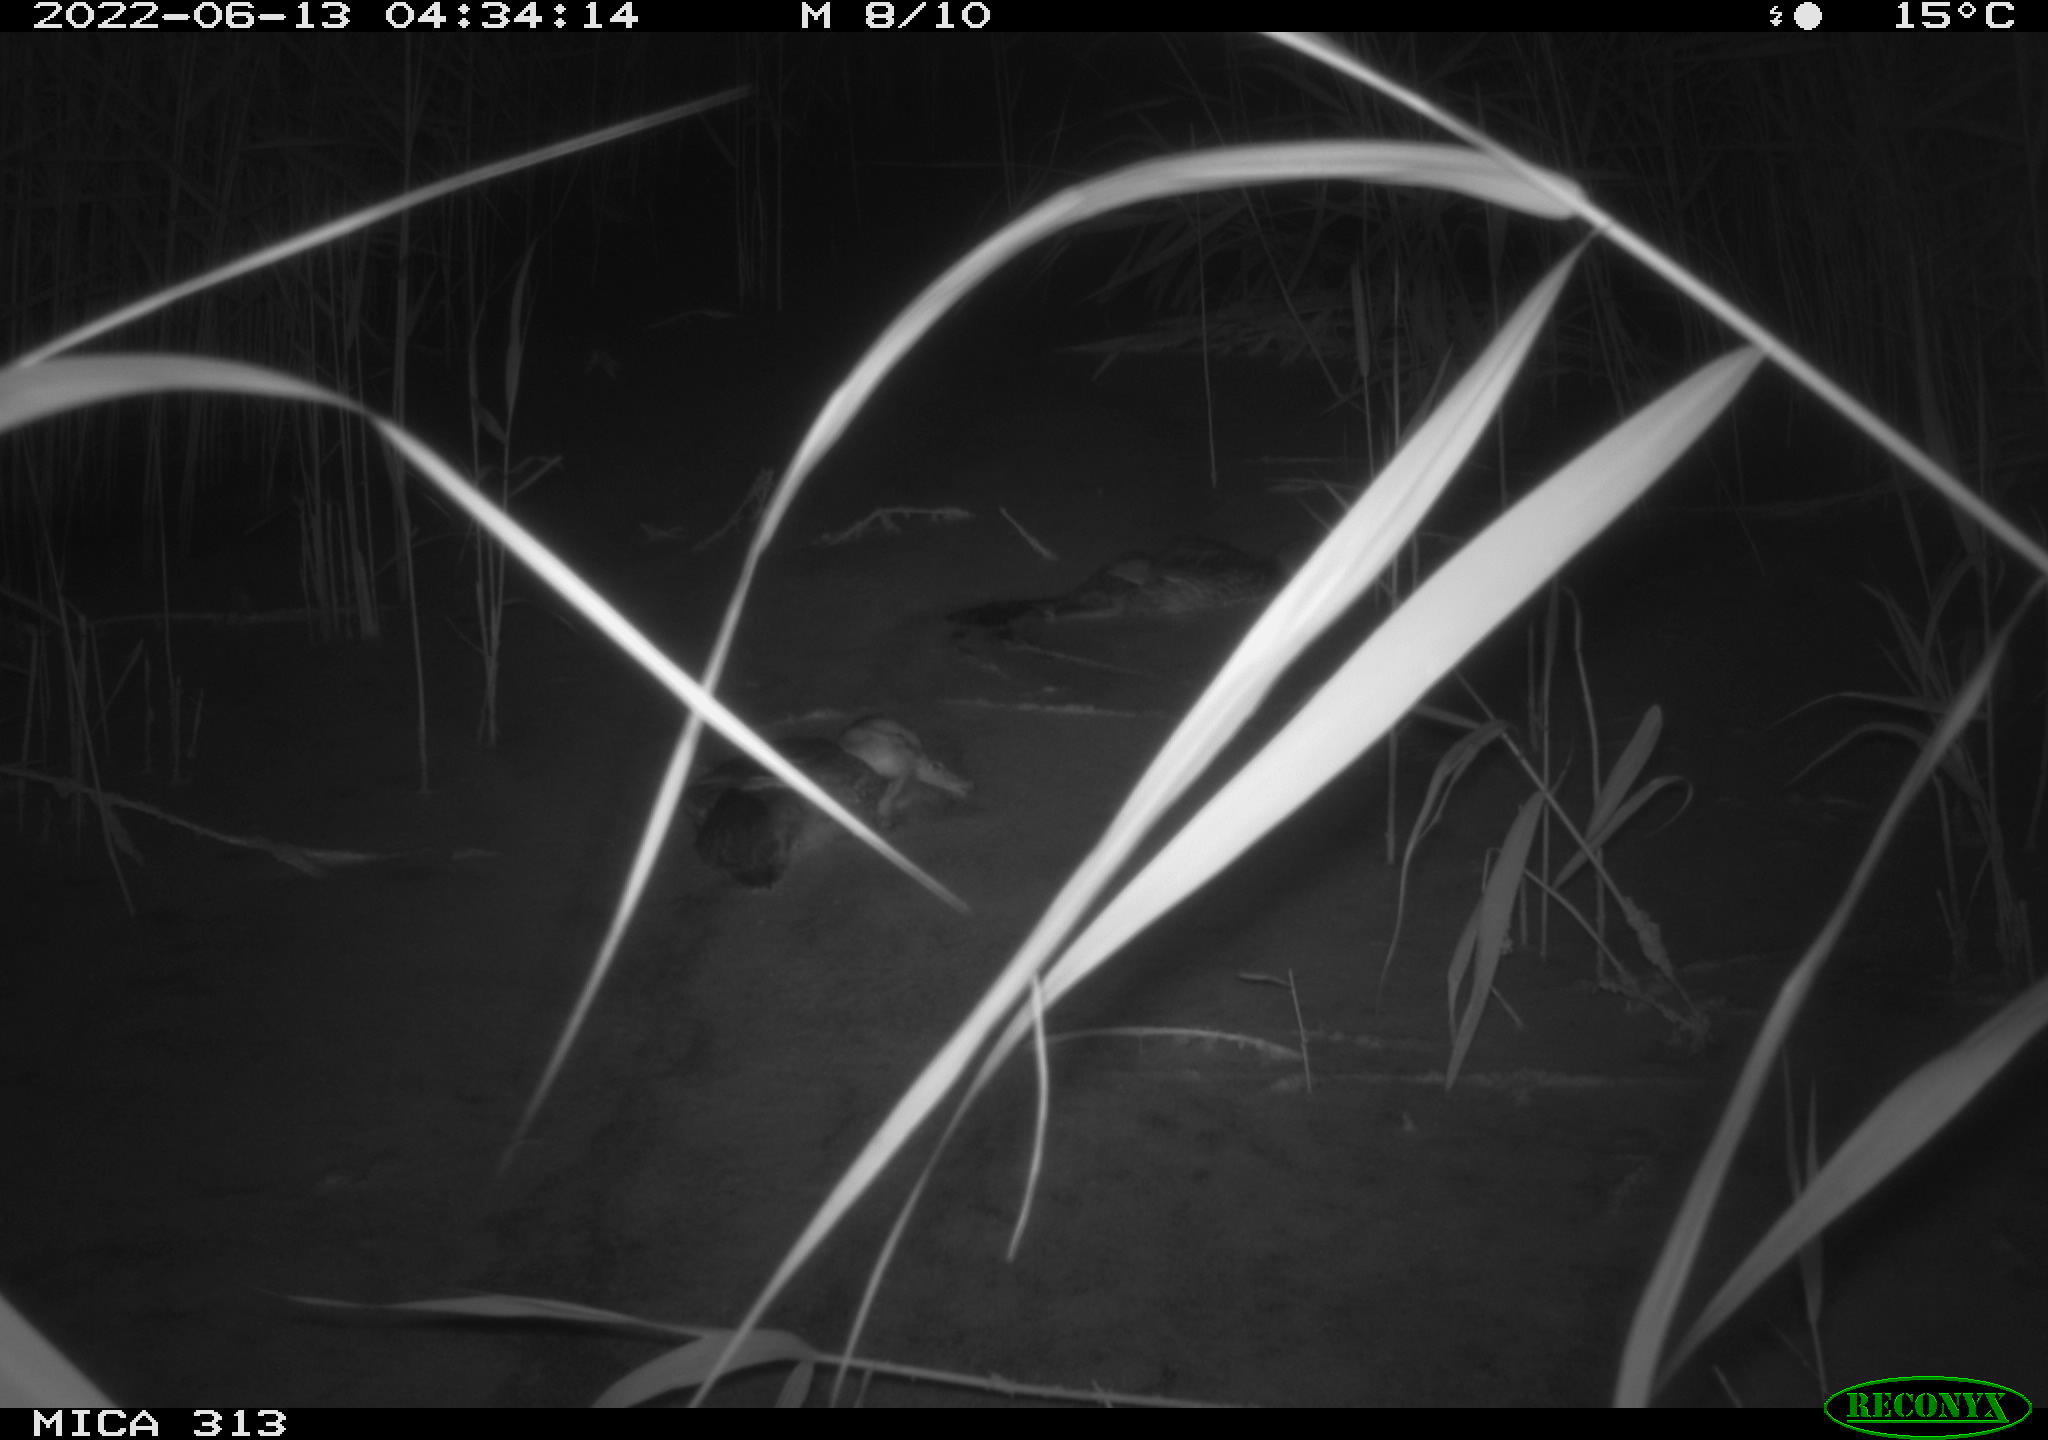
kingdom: Animalia
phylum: Chordata
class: Aves
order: Anseriformes
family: Anatidae
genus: Anas
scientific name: Anas platyrhynchos
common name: Mallard
